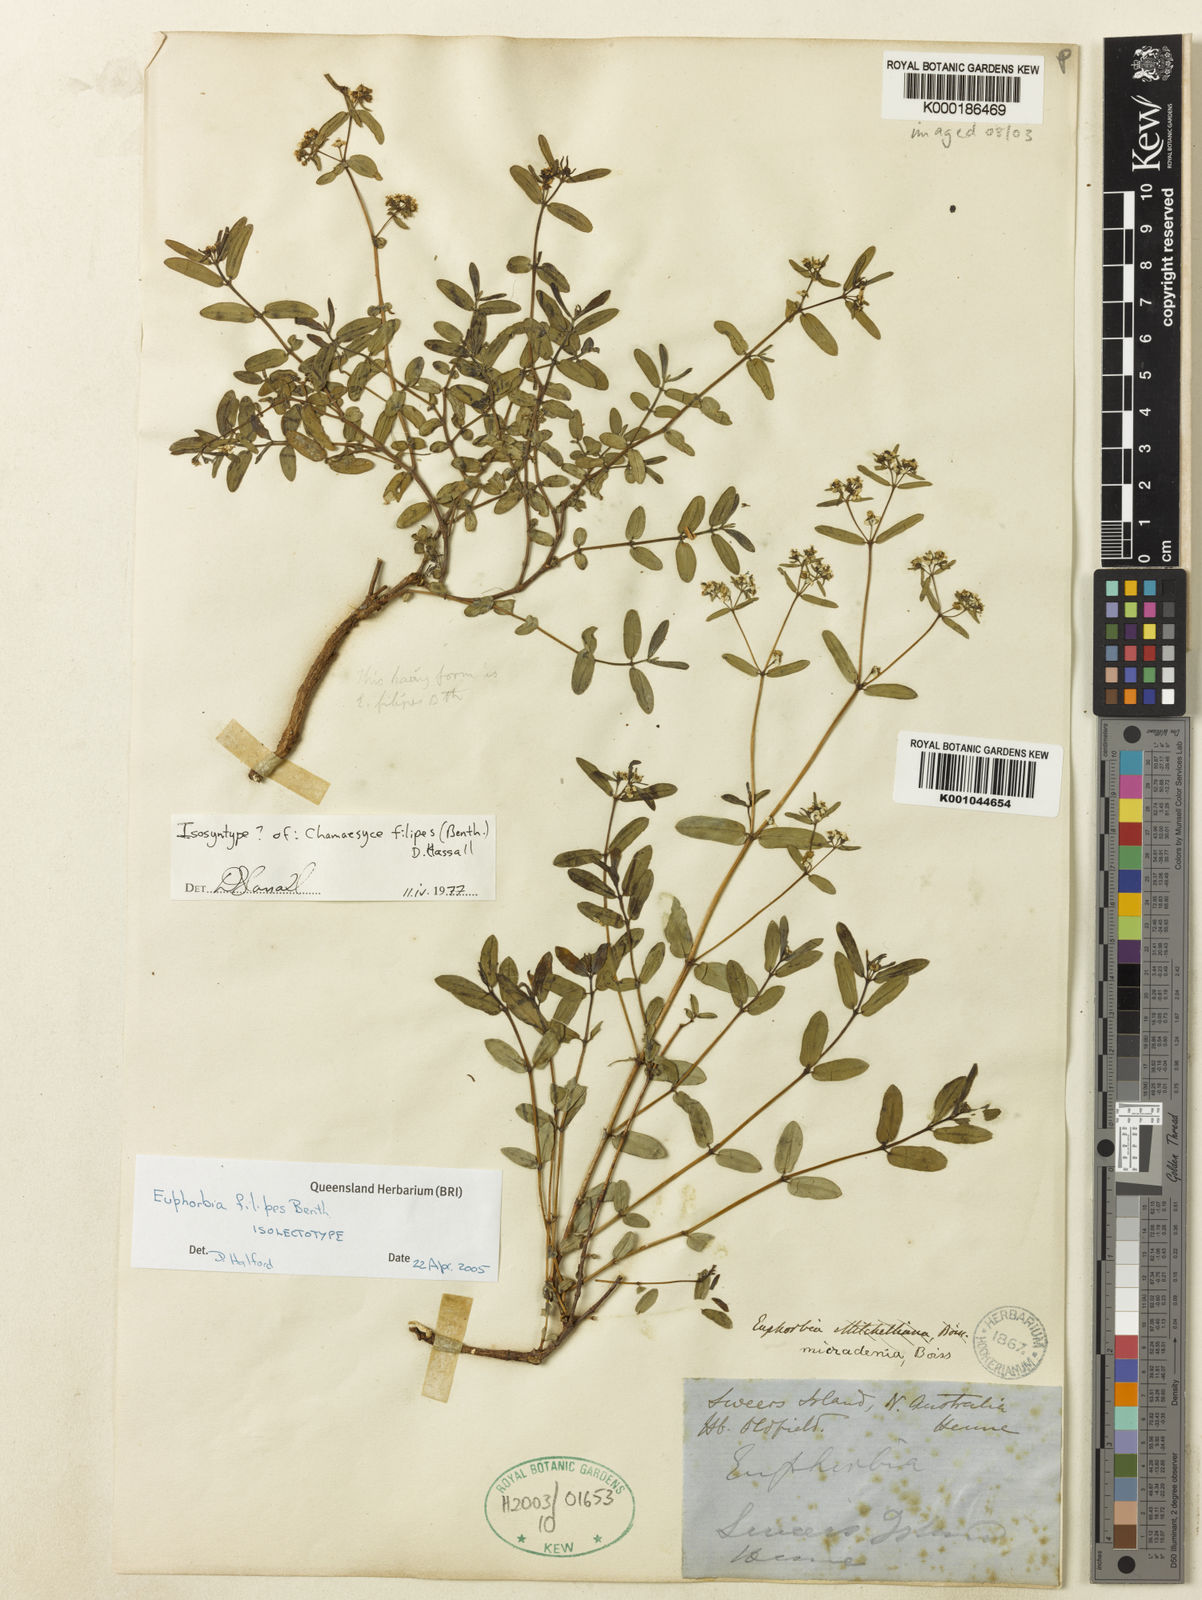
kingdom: Plantae
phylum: Tracheophyta
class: Magnoliopsida
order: Malpighiales
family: Euphorbiaceae
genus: Euphorbia
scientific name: Euphorbia mitchelliana
